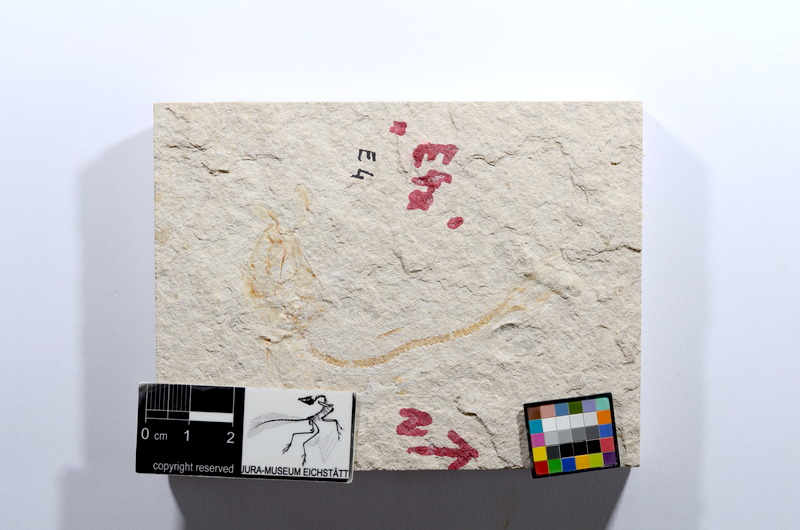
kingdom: Animalia
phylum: Chordata
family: Ascalaboidae
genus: Tharsis
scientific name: Tharsis dubius
